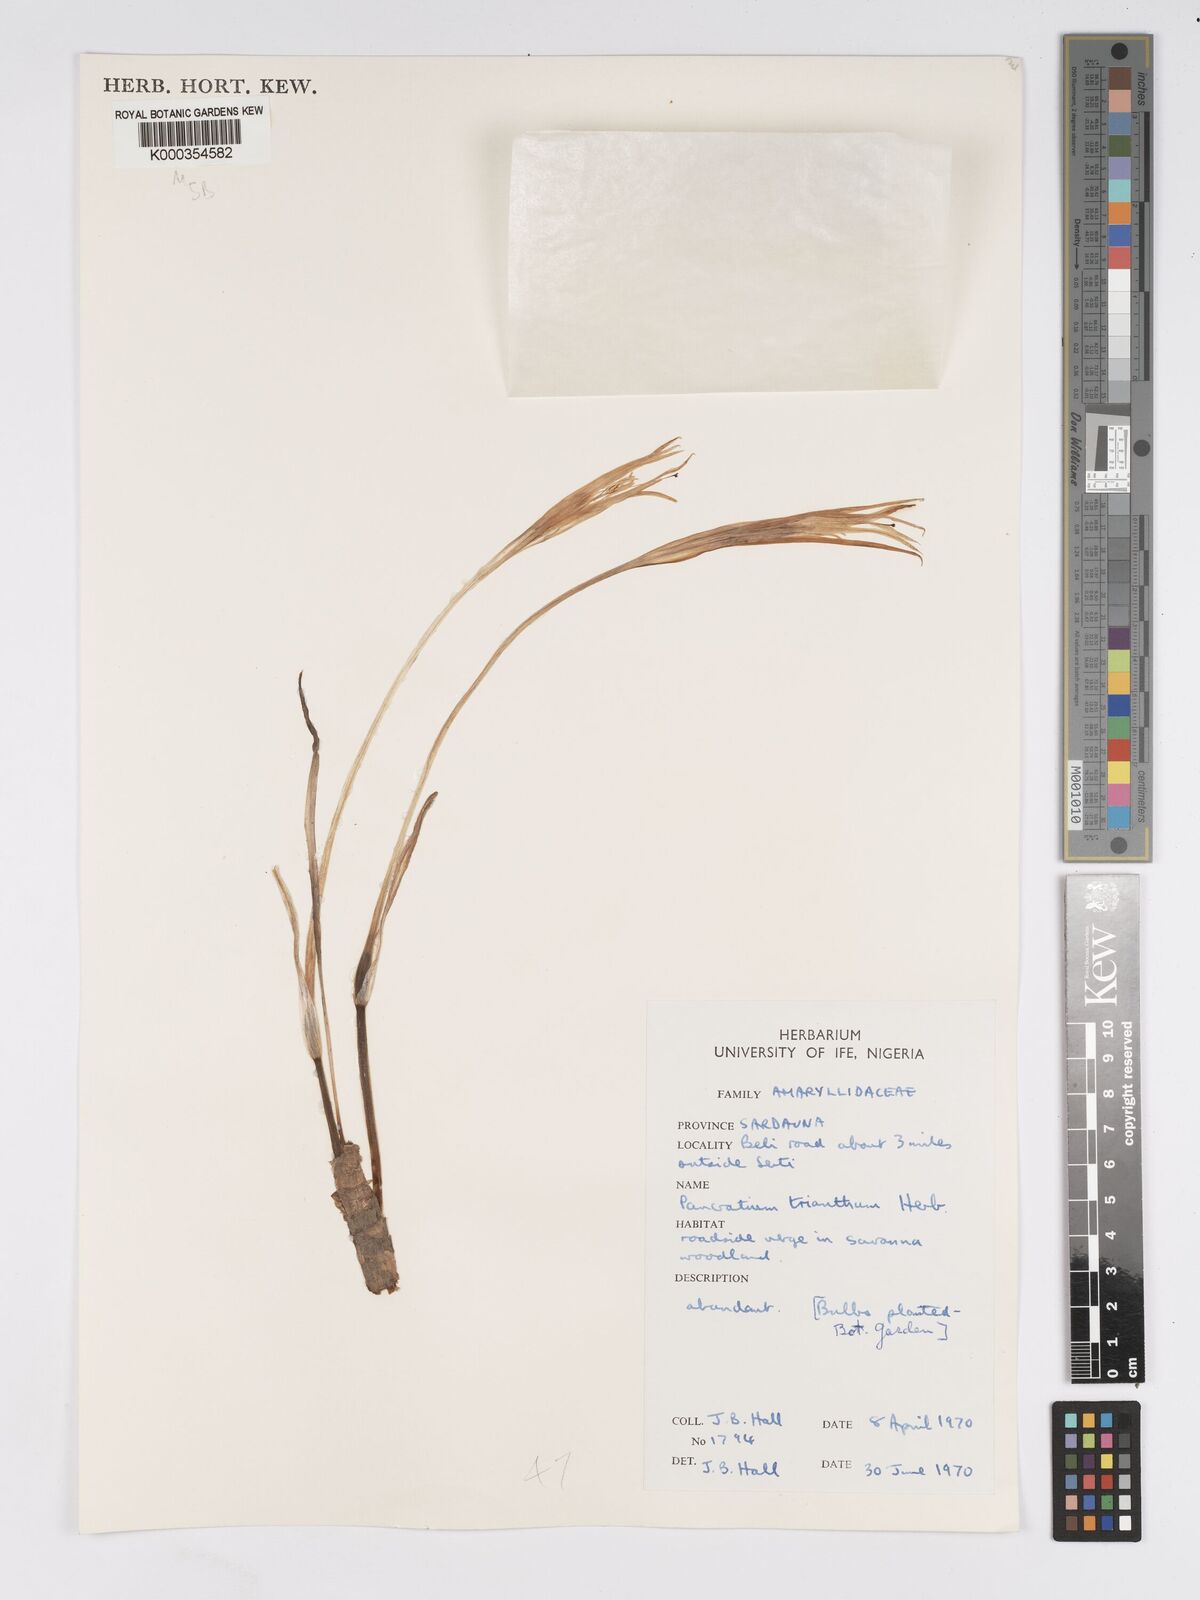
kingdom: Plantae
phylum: Tracheophyta
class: Liliopsida
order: Asparagales
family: Amaryllidaceae
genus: Pancratium
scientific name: Pancratium trianthum
